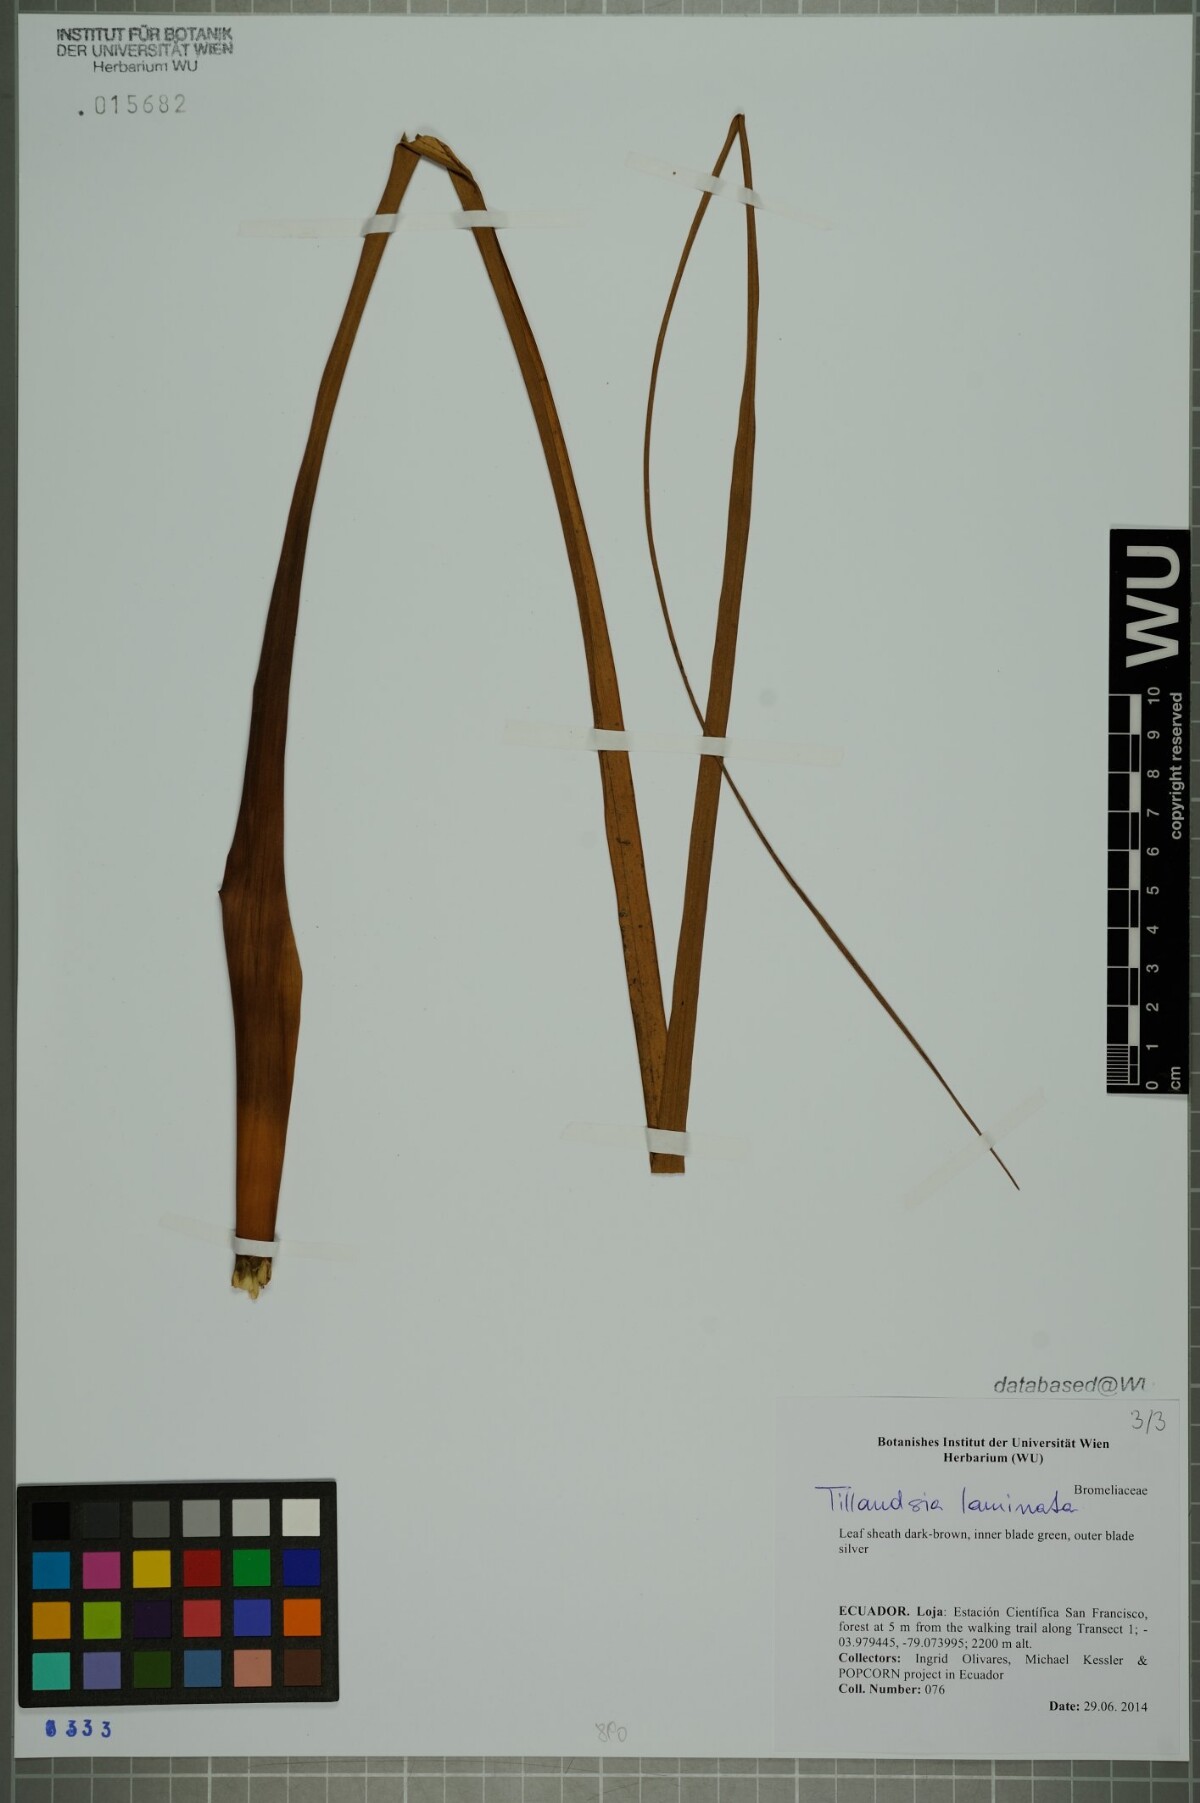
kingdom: Plantae
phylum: Tracheophyta
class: Liliopsida
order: Poales
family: Bromeliaceae
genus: Racinaea
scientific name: Racinaea laminata
